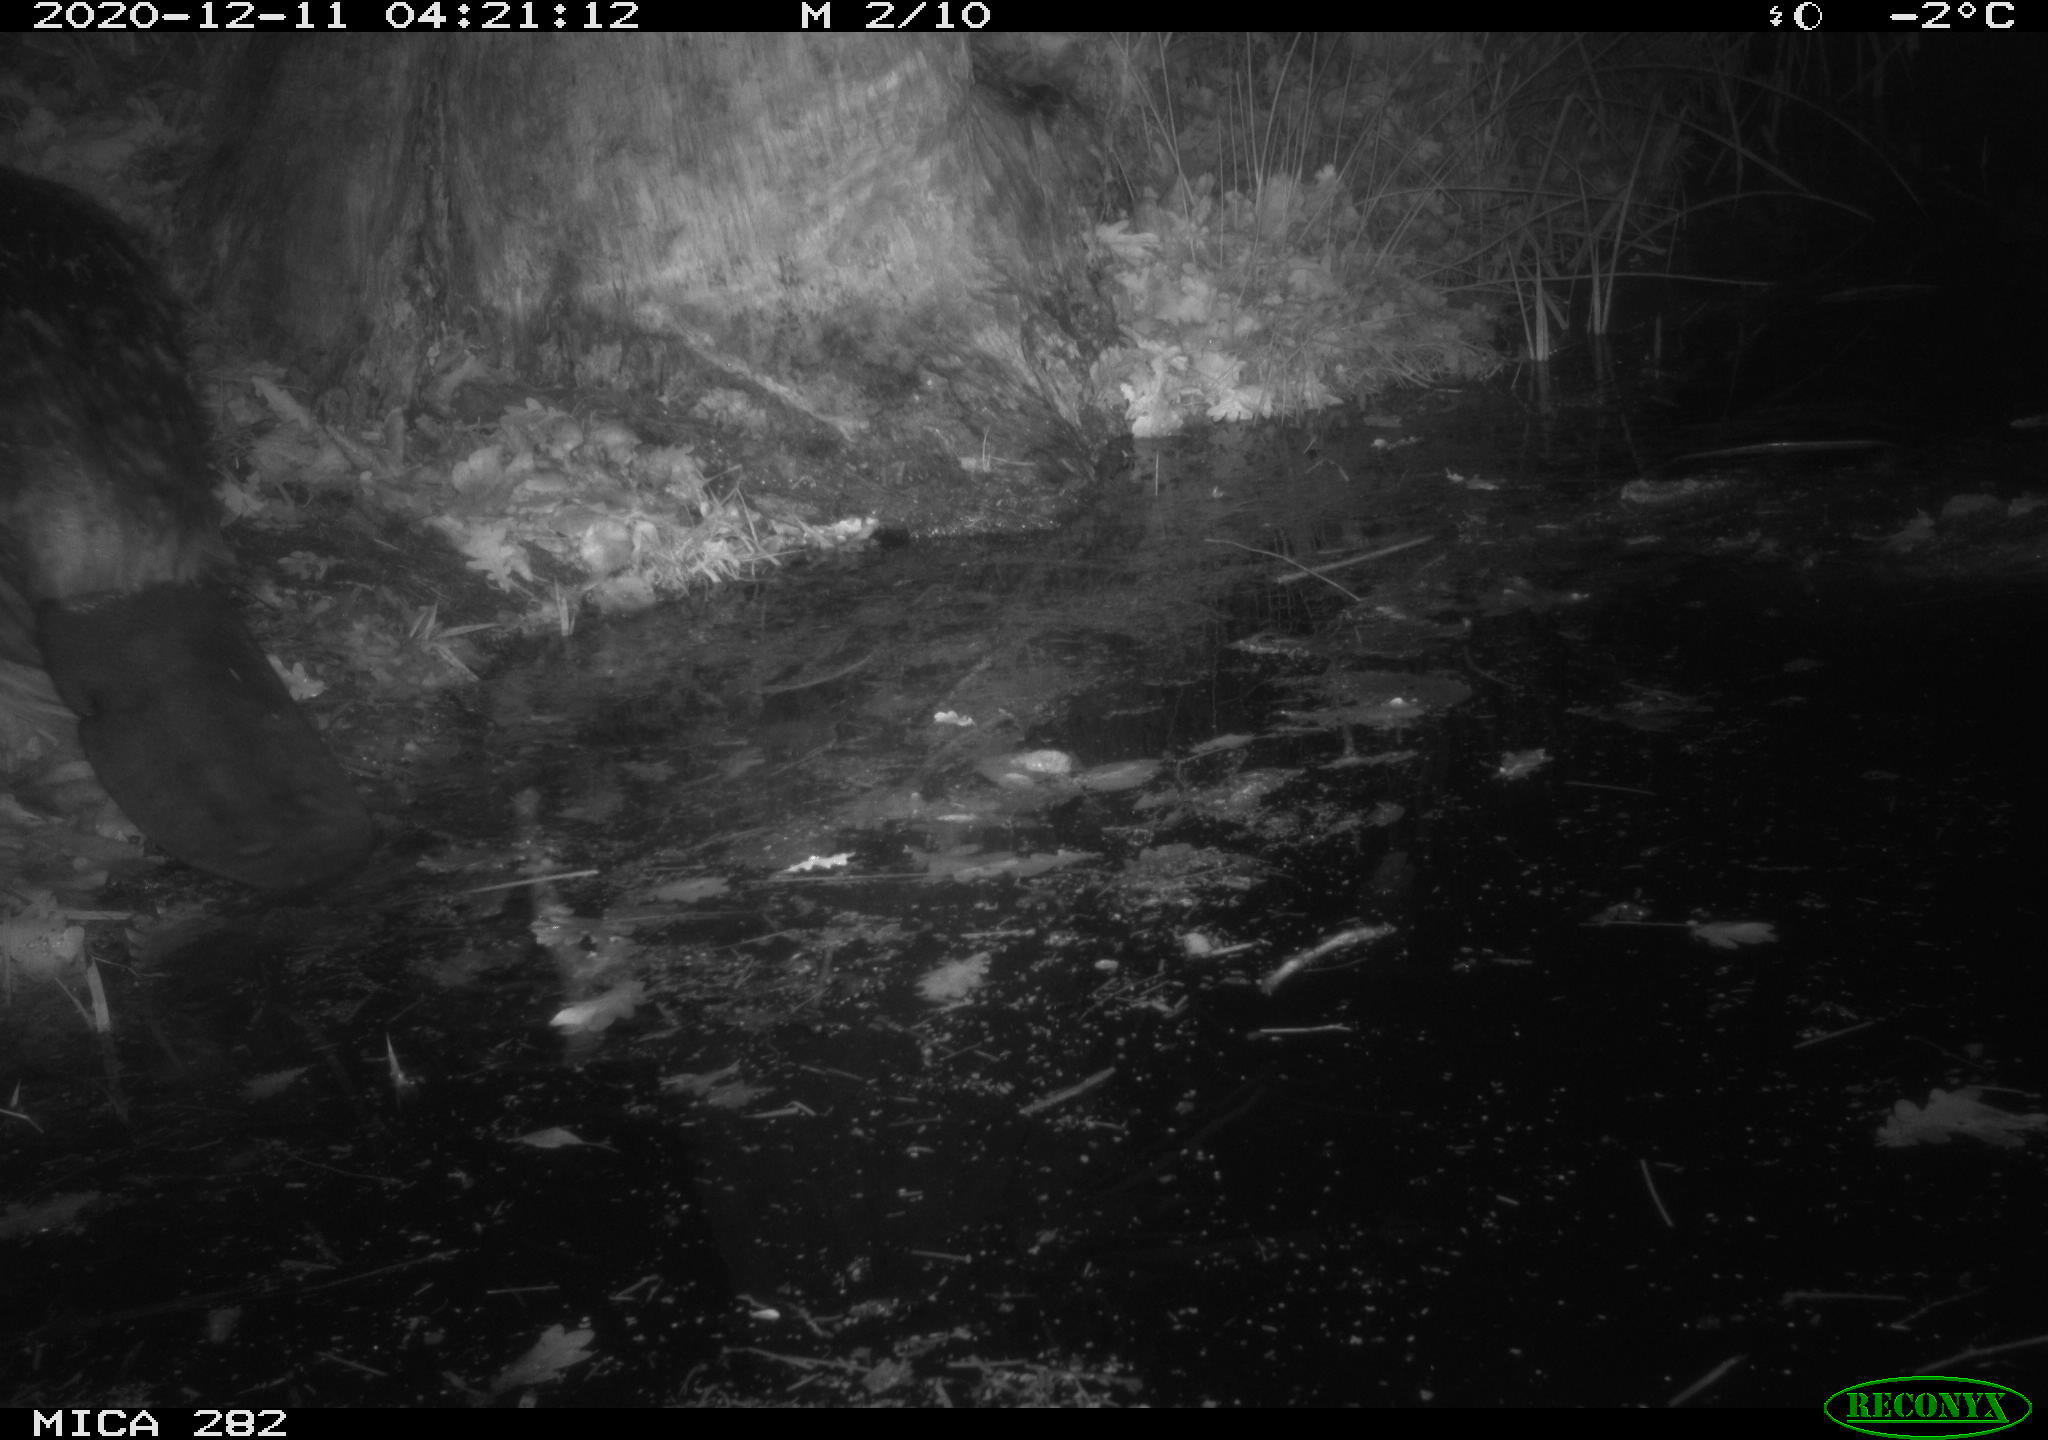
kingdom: Animalia
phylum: Chordata
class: Mammalia
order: Rodentia
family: Castoridae
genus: Castor
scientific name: Castor fiber
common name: Eurasian beaver
